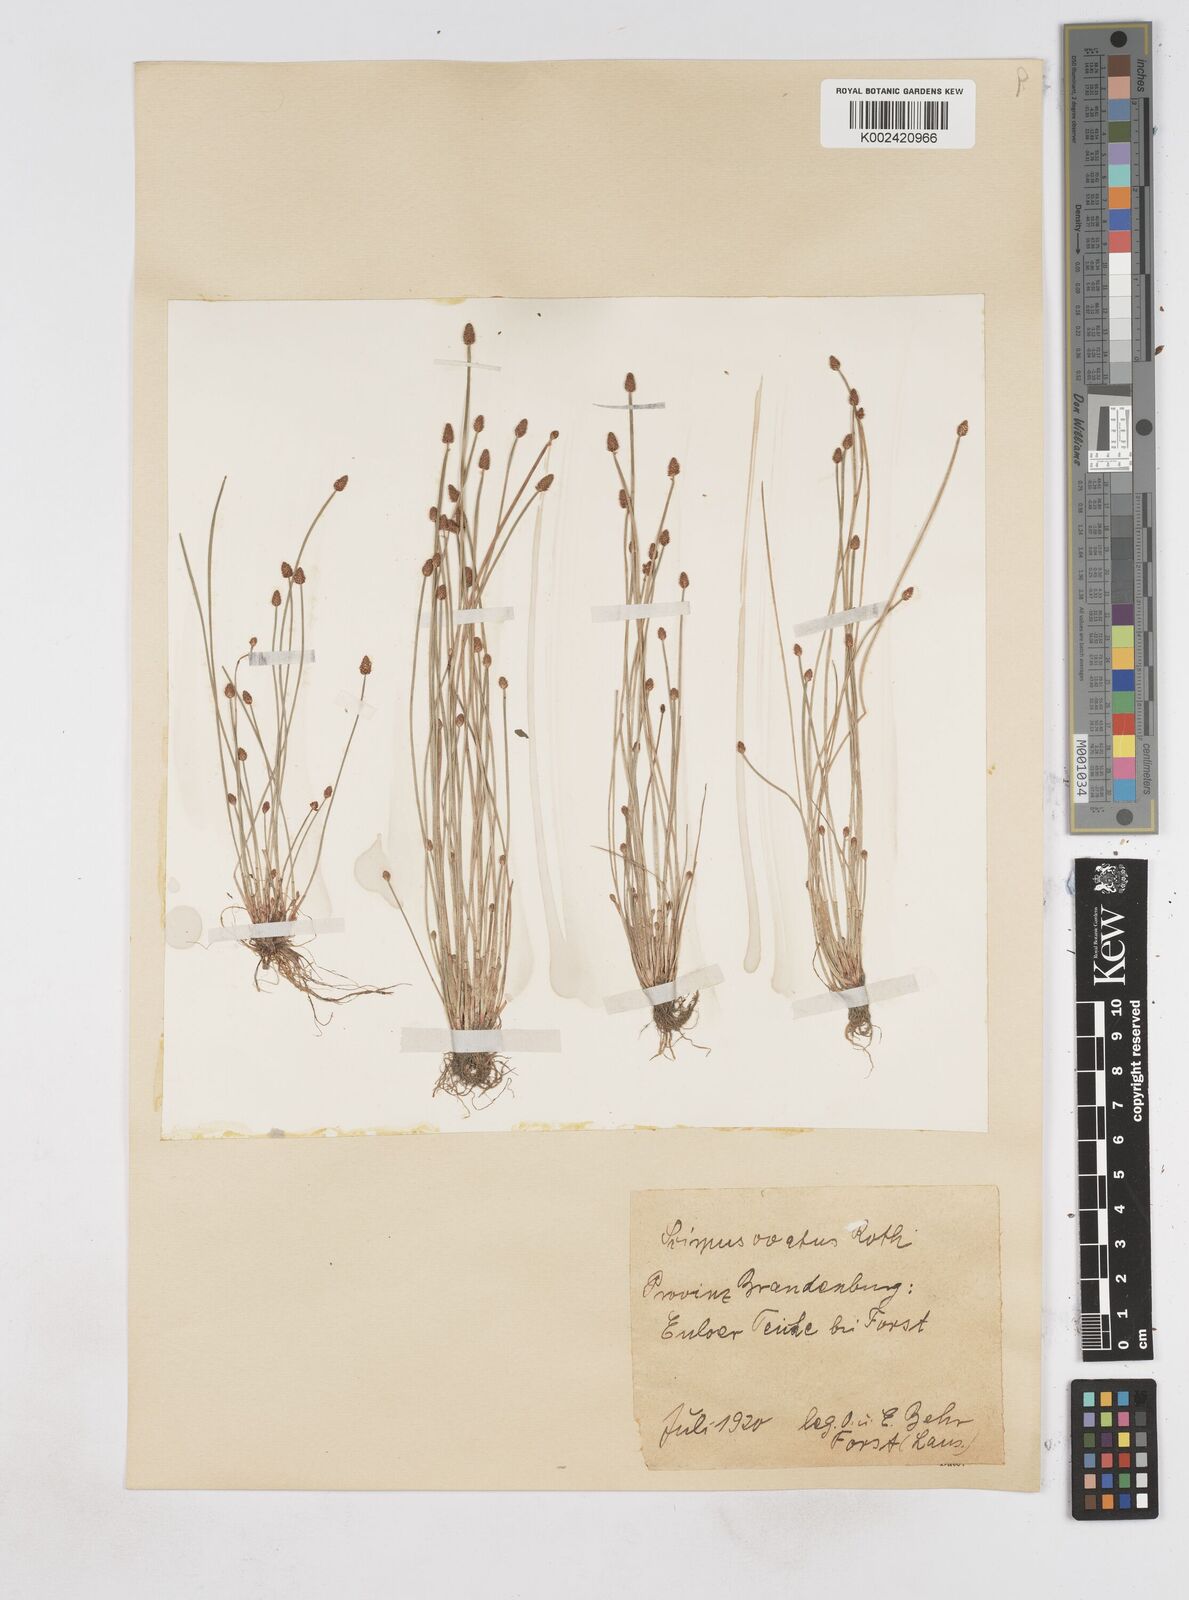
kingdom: Plantae
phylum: Tracheophyta
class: Liliopsida
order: Poales
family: Cyperaceae
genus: Eleocharis
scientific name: Eleocharis ovata
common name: Oval spike-rush
